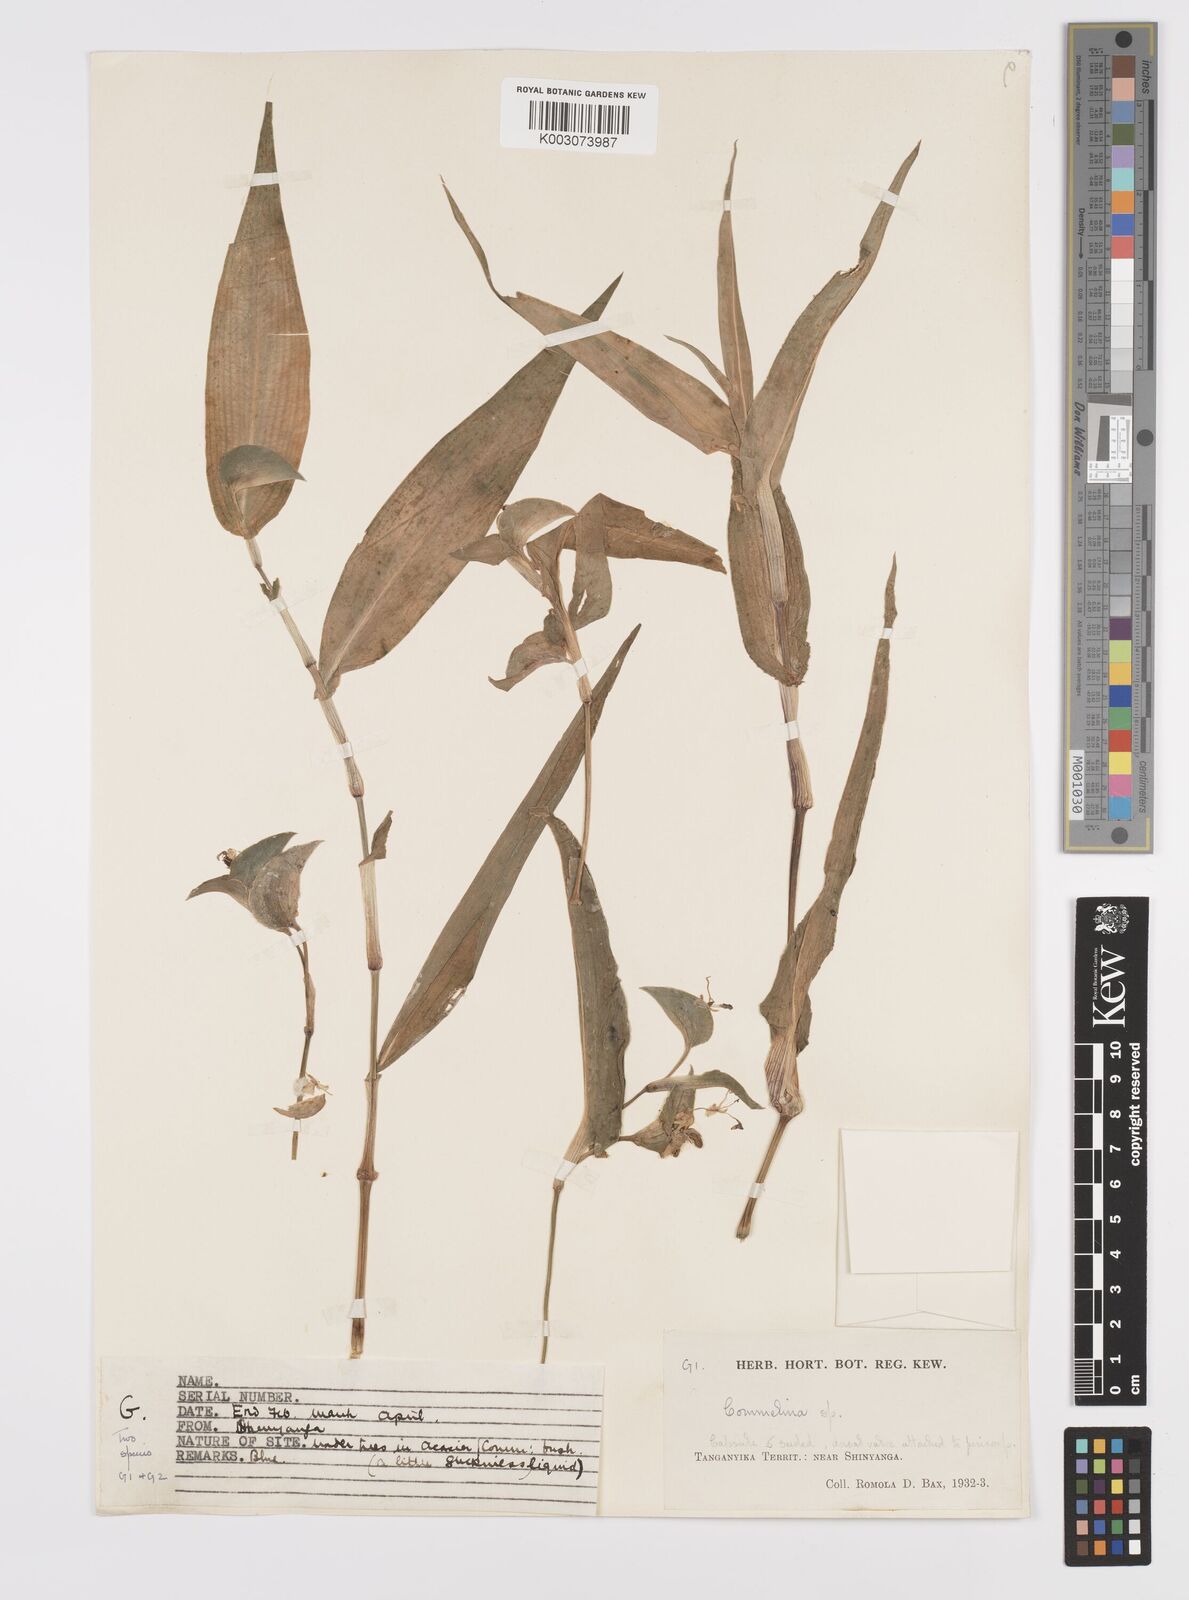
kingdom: Plantae
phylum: Tracheophyta
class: Liliopsida
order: Commelinales
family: Commelinaceae
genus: Commelina
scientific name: Commelina imberbis
